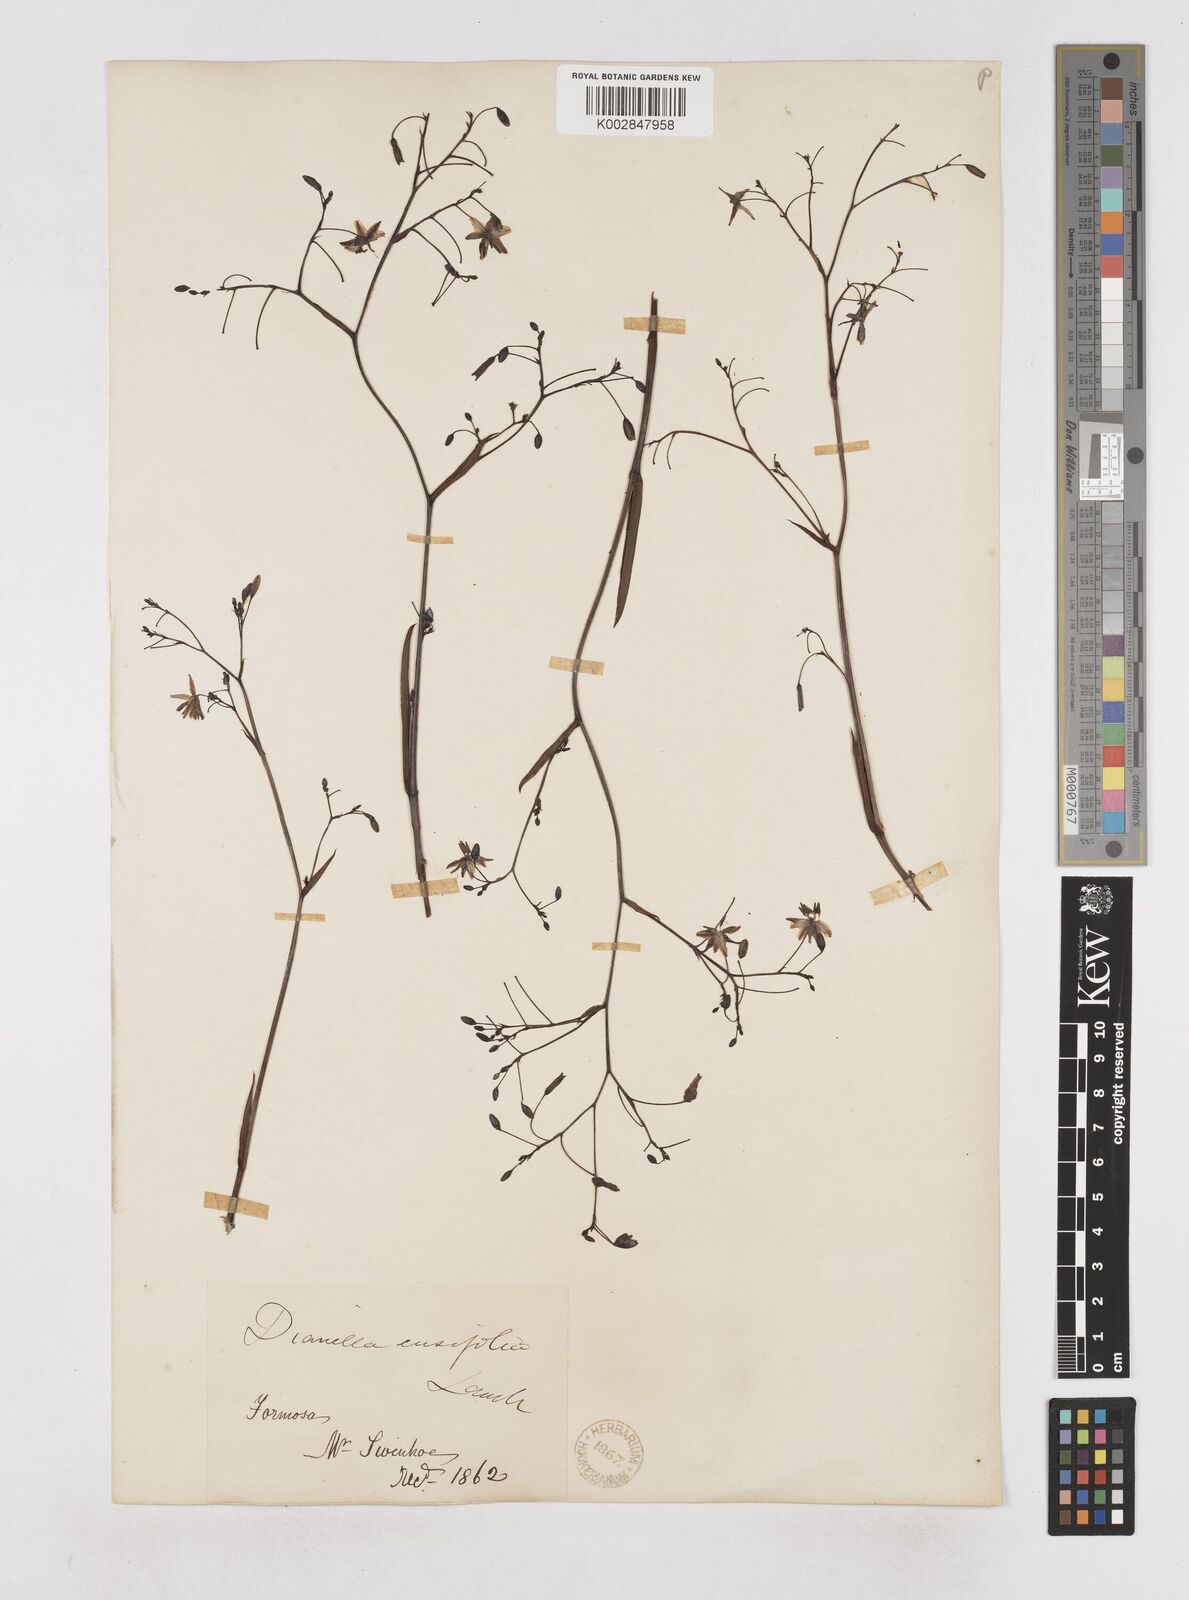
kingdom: Plantae
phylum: Tracheophyta
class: Liliopsida
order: Asparagales
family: Asphodelaceae
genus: Dianella
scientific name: Dianella ensifolia
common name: New zealand lilyplant
